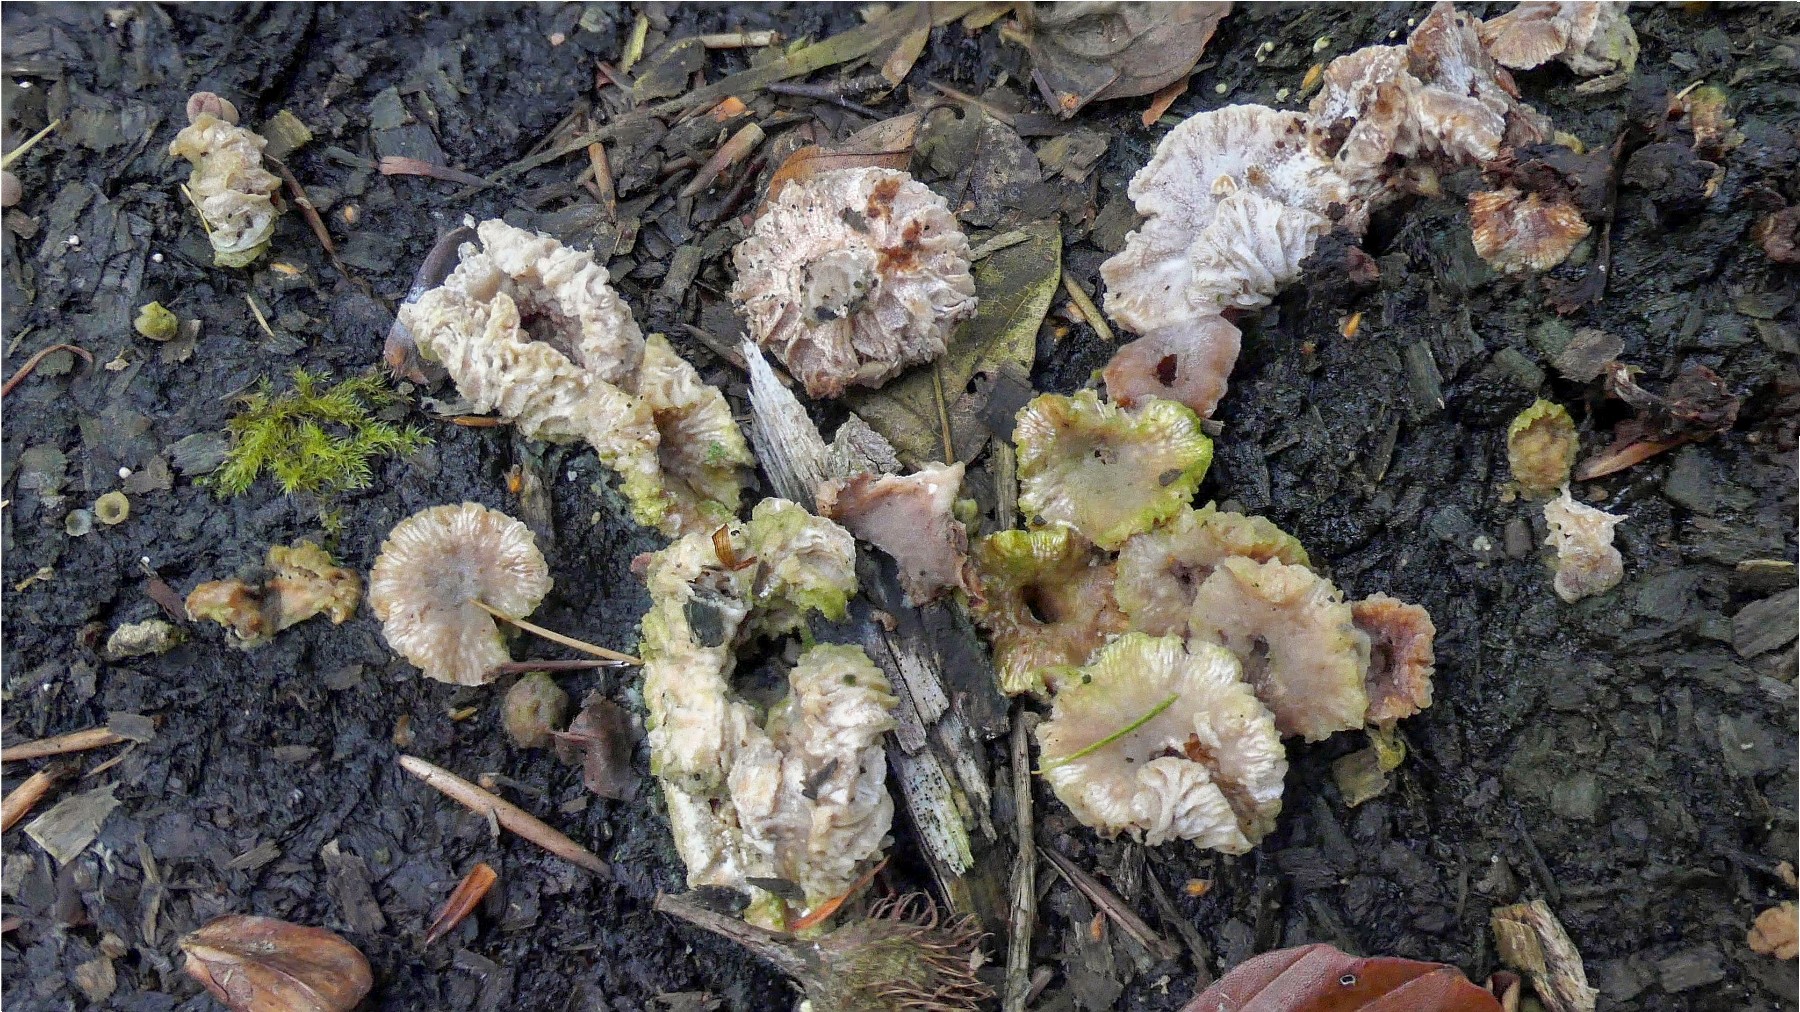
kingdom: Fungi
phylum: Ascomycota
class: Sordariomycetes
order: Hypocreales
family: Hypocreaceae
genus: Hypomyces
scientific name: Hypomyces tubariicola
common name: fnughat-snylteskorpe
